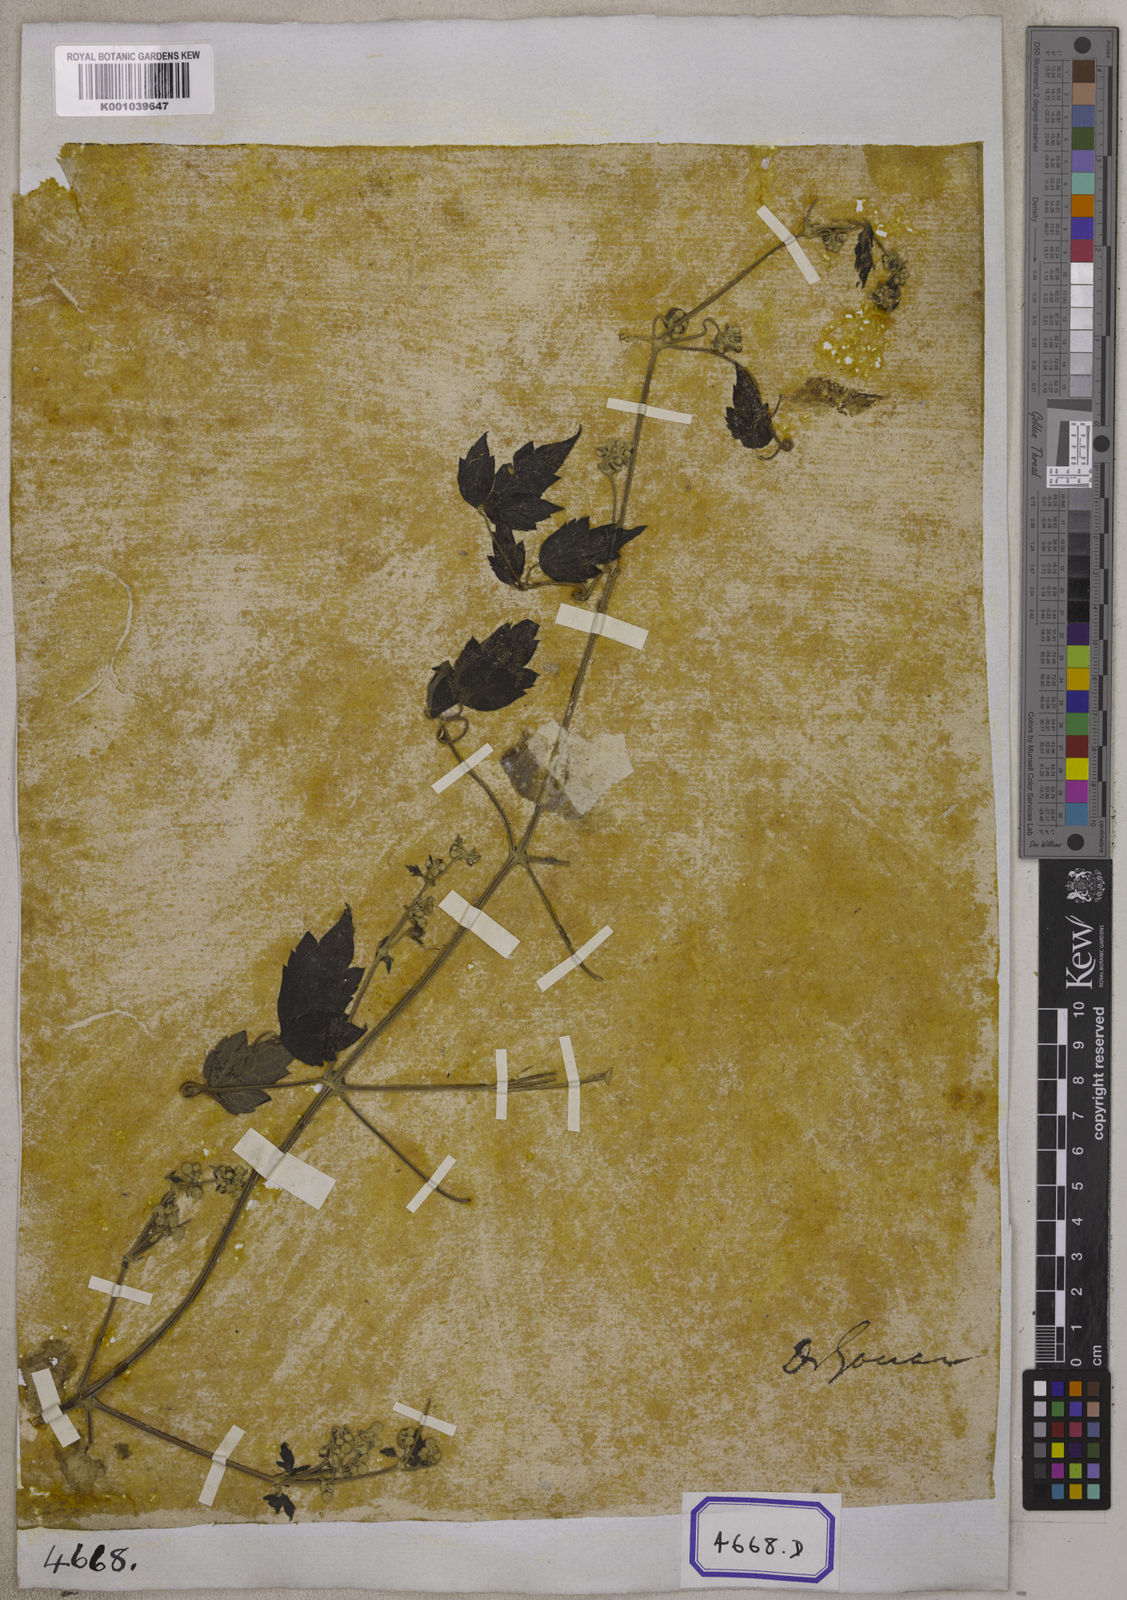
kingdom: Plantae
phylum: Tracheophyta
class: Magnoliopsida
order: Ranunculales
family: Ranunculaceae
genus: Clematis
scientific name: Clematis grata
